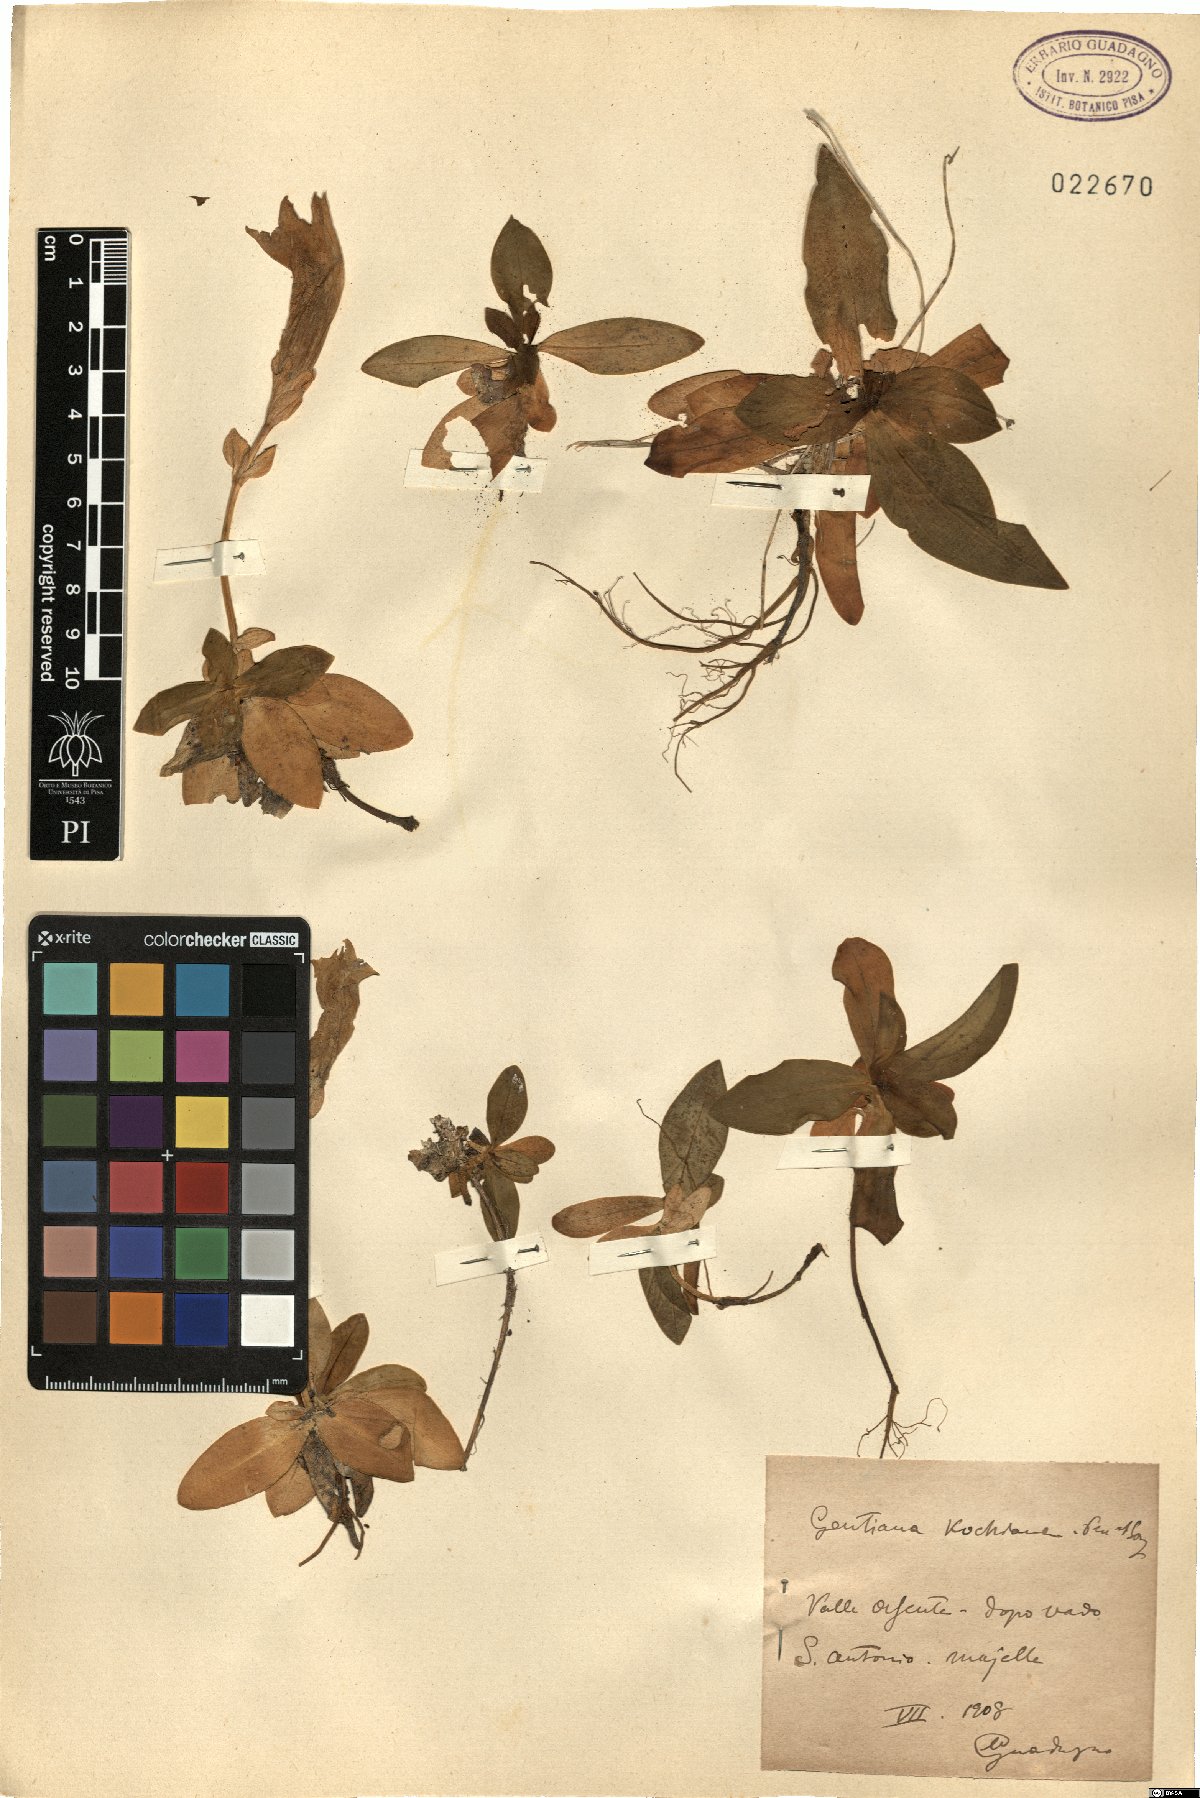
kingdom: Plantae
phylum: Tracheophyta
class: Magnoliopsida
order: Gentianales
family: Gentianaceae
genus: Gentiana
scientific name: Gentiana acaulis
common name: Trumpet gentian
